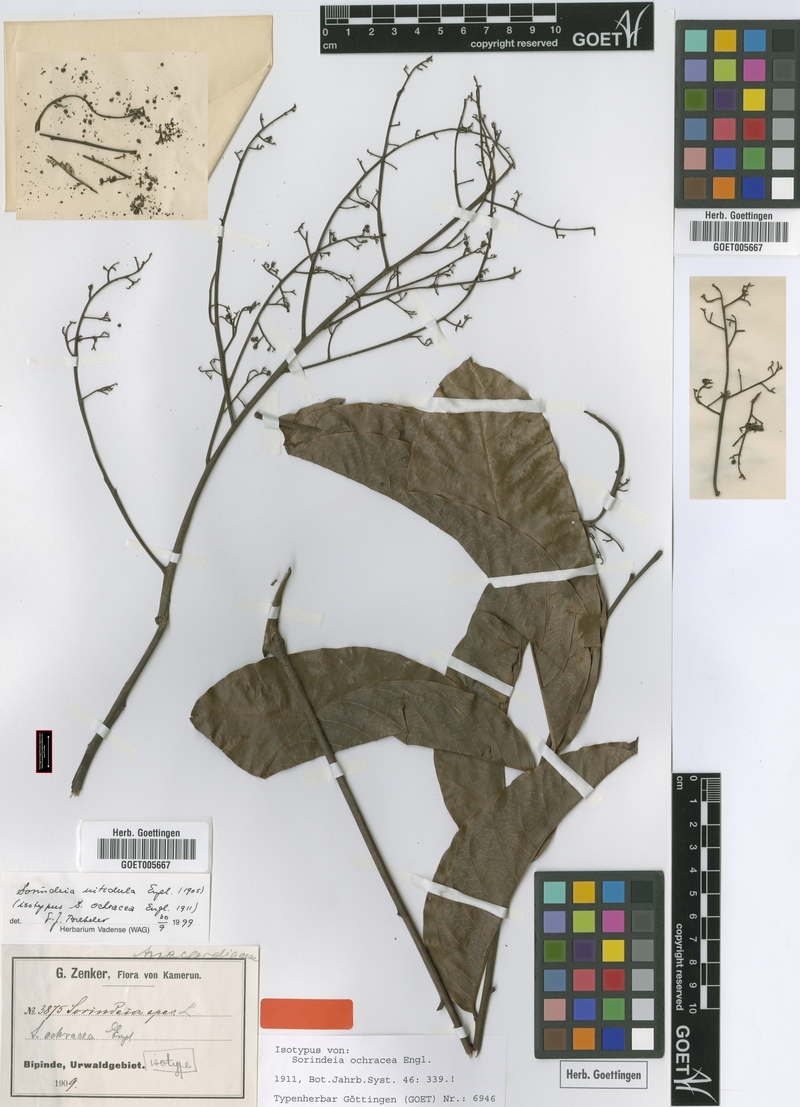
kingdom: Plantae
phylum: Tracheophyta
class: Magnoliopsida
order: Sapindales
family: Anacardiaceae
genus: Sorindeia
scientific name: Sorindeia africana
